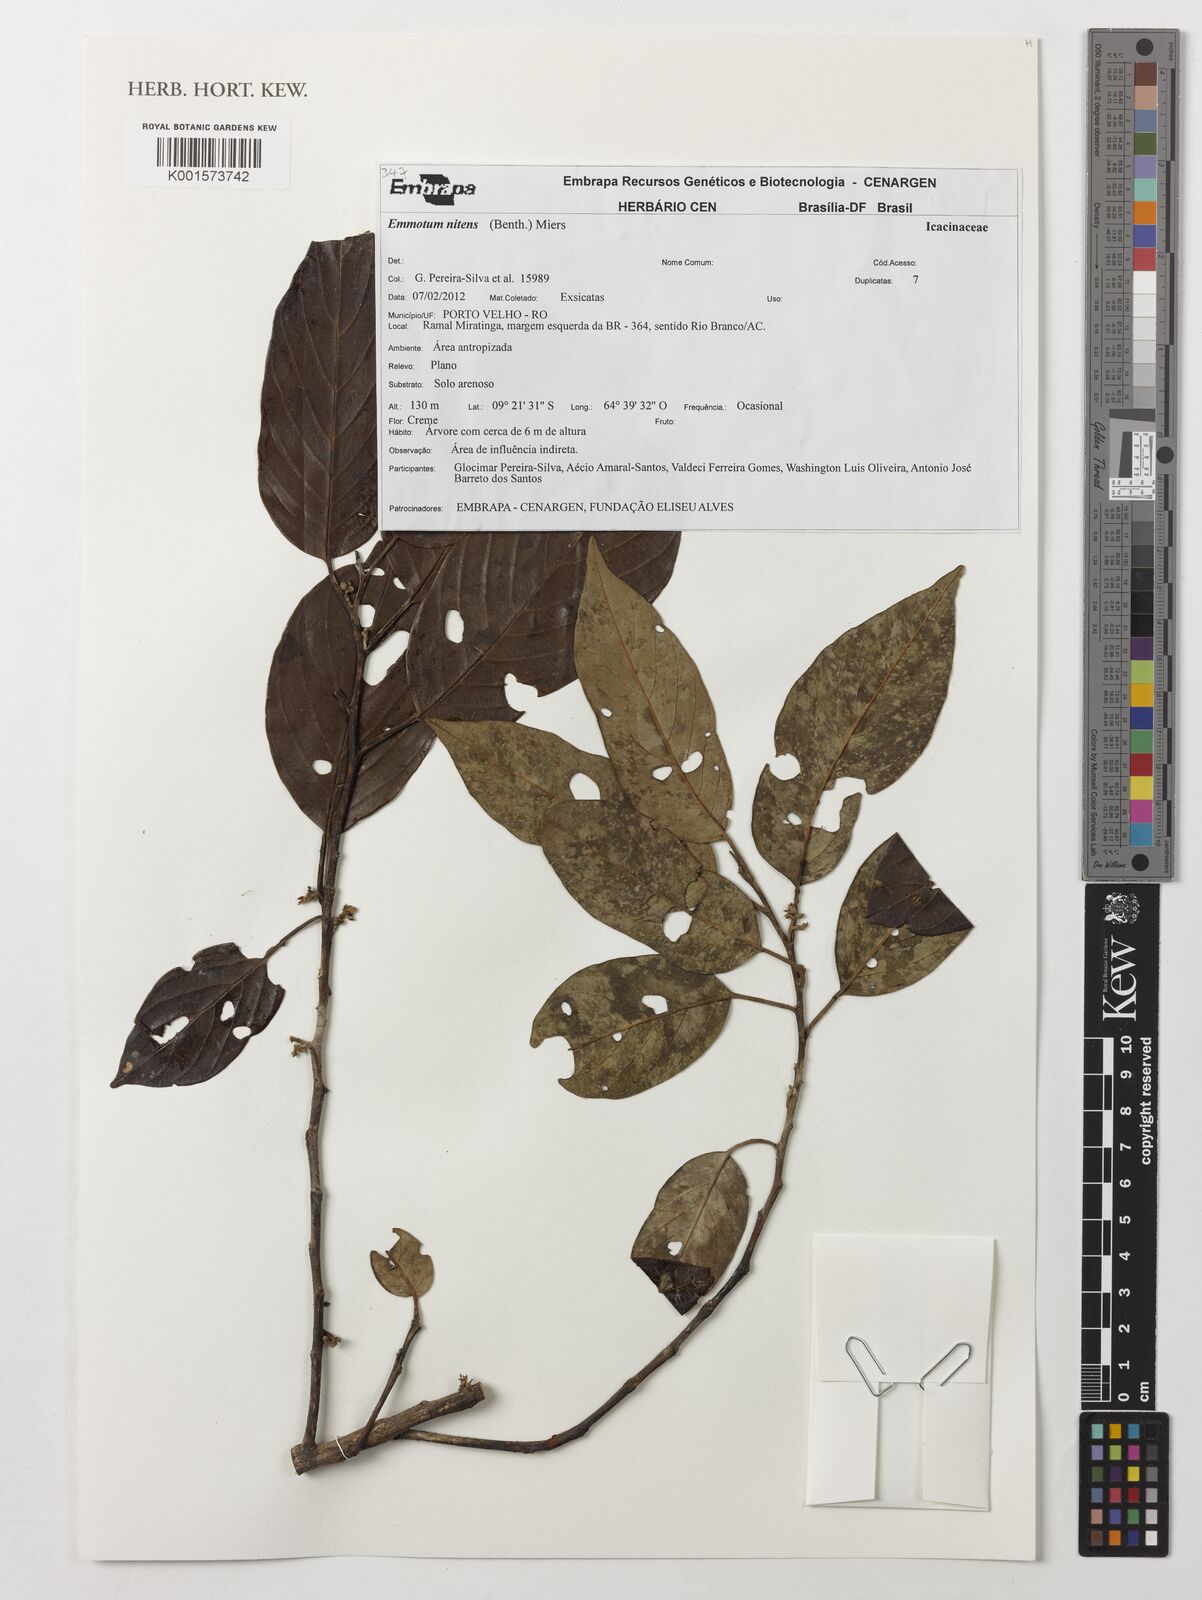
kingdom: Plantae
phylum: Tracheophyta
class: Magnoliopsida
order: Metteniusales
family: Metteniusaceae
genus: Emmotum
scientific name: Emmotum nitens
